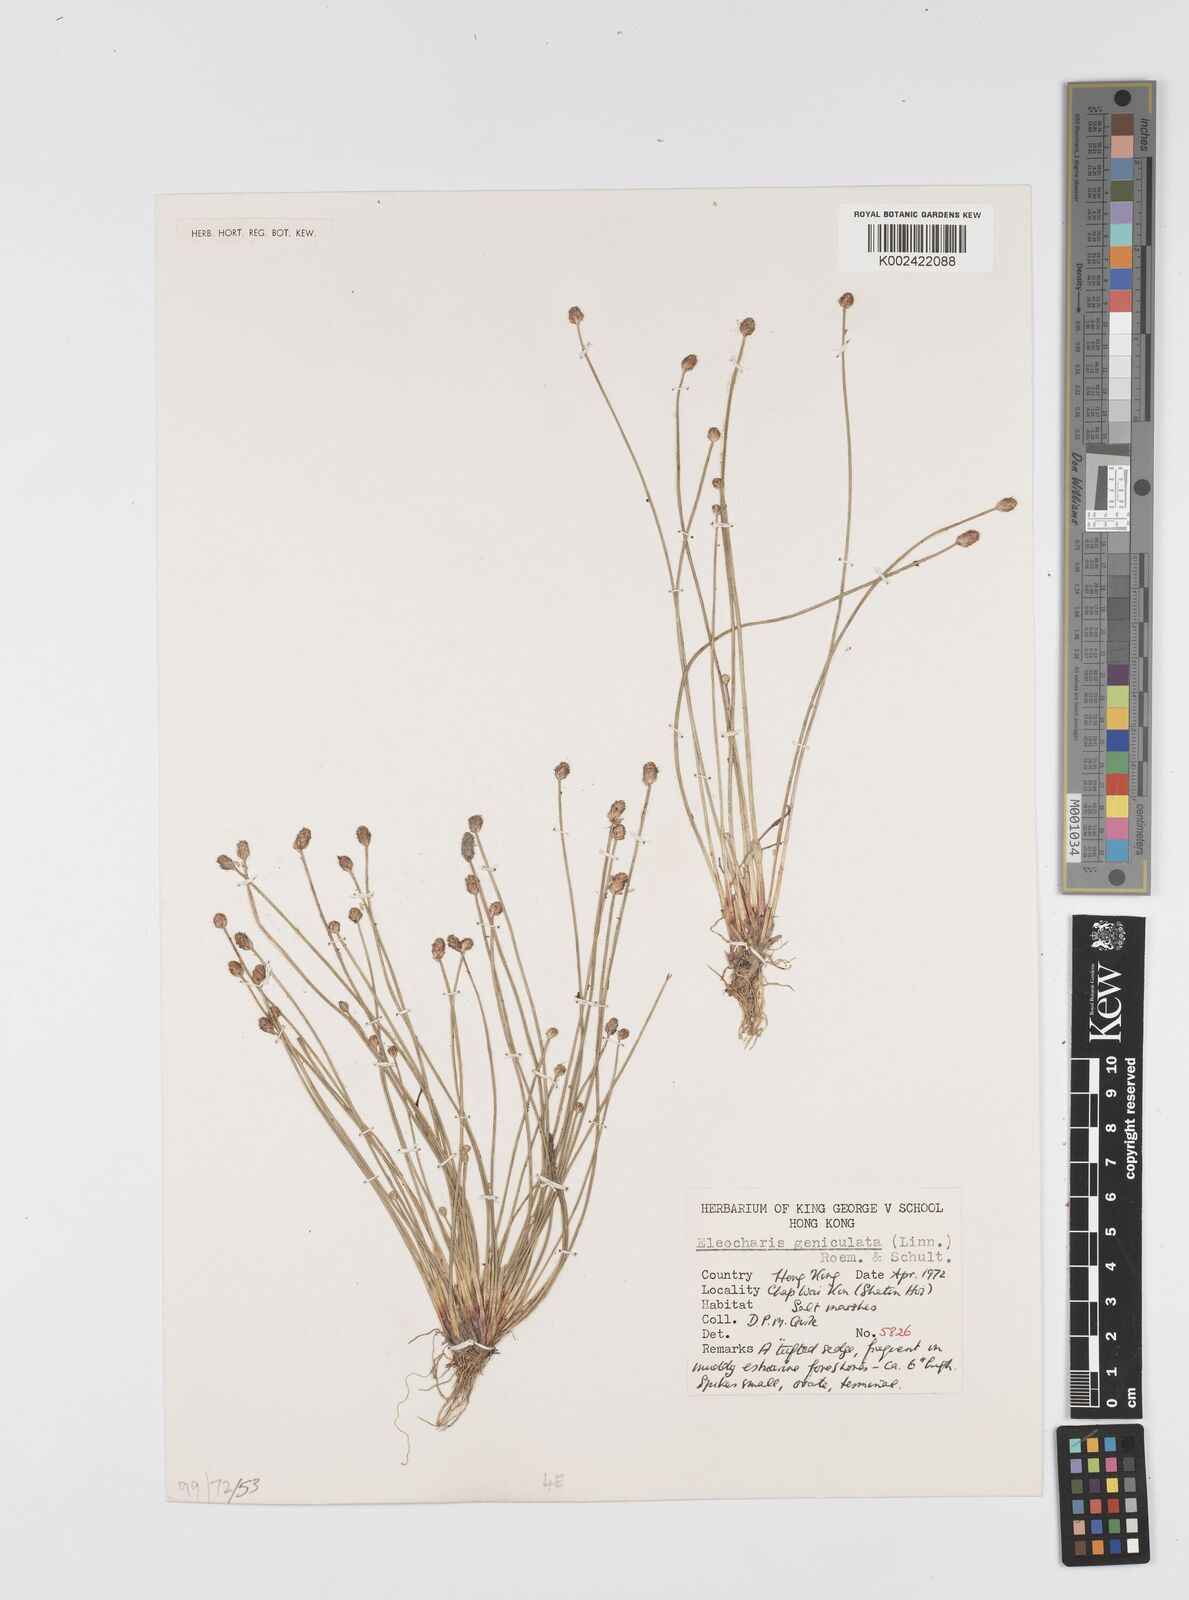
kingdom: Plantae
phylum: Tracheophyta
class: Liliopsida
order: Poales
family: Cyperaceae
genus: Eleocharis
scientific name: Eleocharis geniculata
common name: Canada spikesedge
